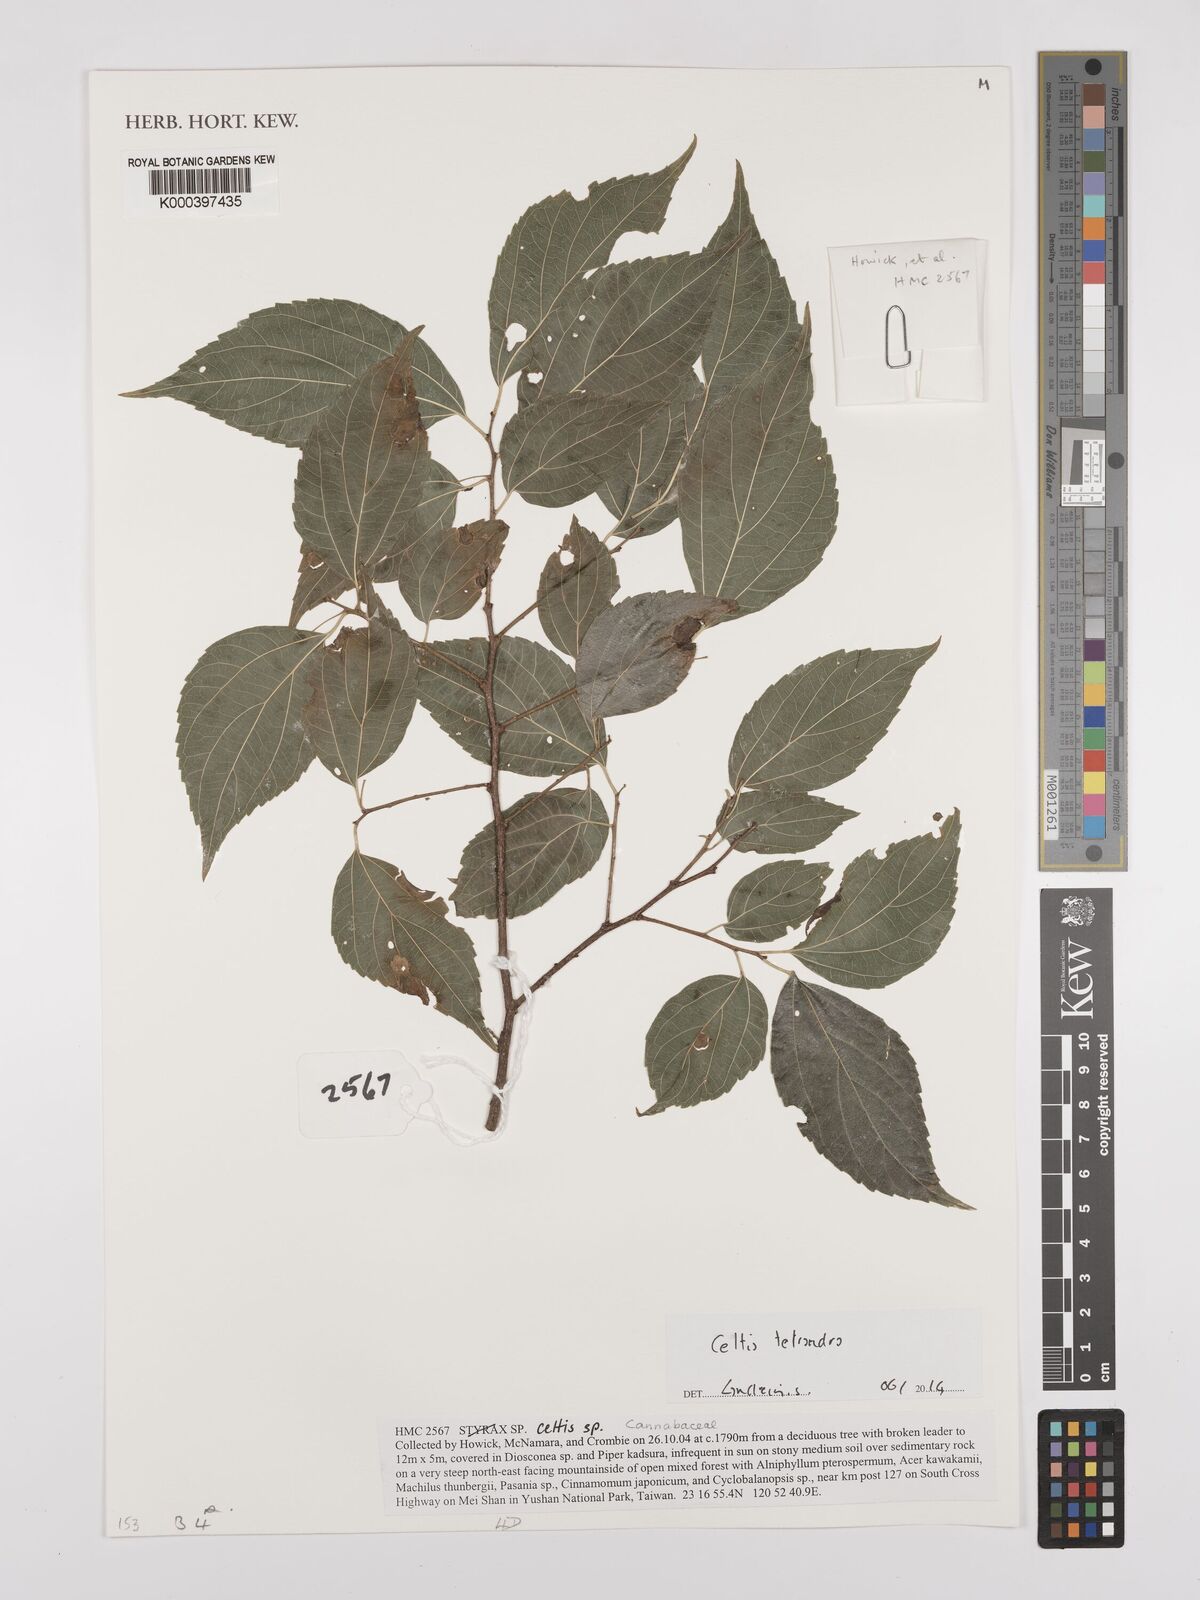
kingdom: Plantae
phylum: Tracheophyta
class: Magnoliopsida
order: Rosales
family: Cannabaceae
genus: Celtis
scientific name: Celtis tetrandra
